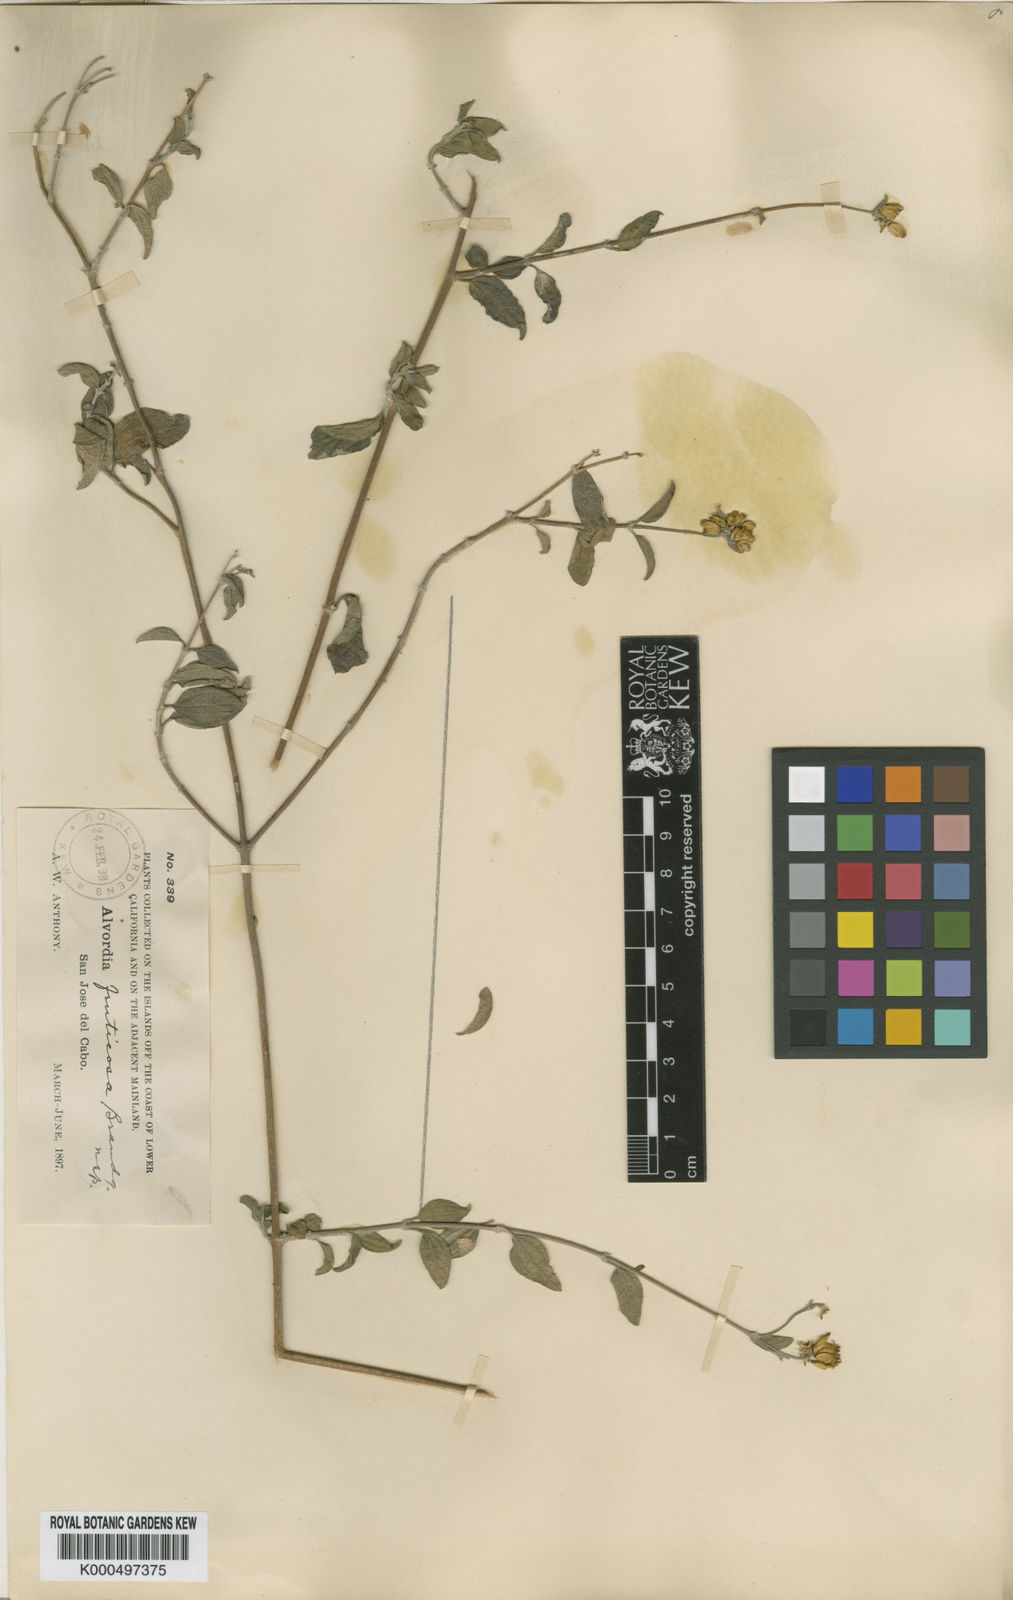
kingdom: Plantae
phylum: Tracheophyta
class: Magnoliopsida
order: Asterales
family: Asteraceae
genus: Aldama
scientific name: Aldama fruticosa
